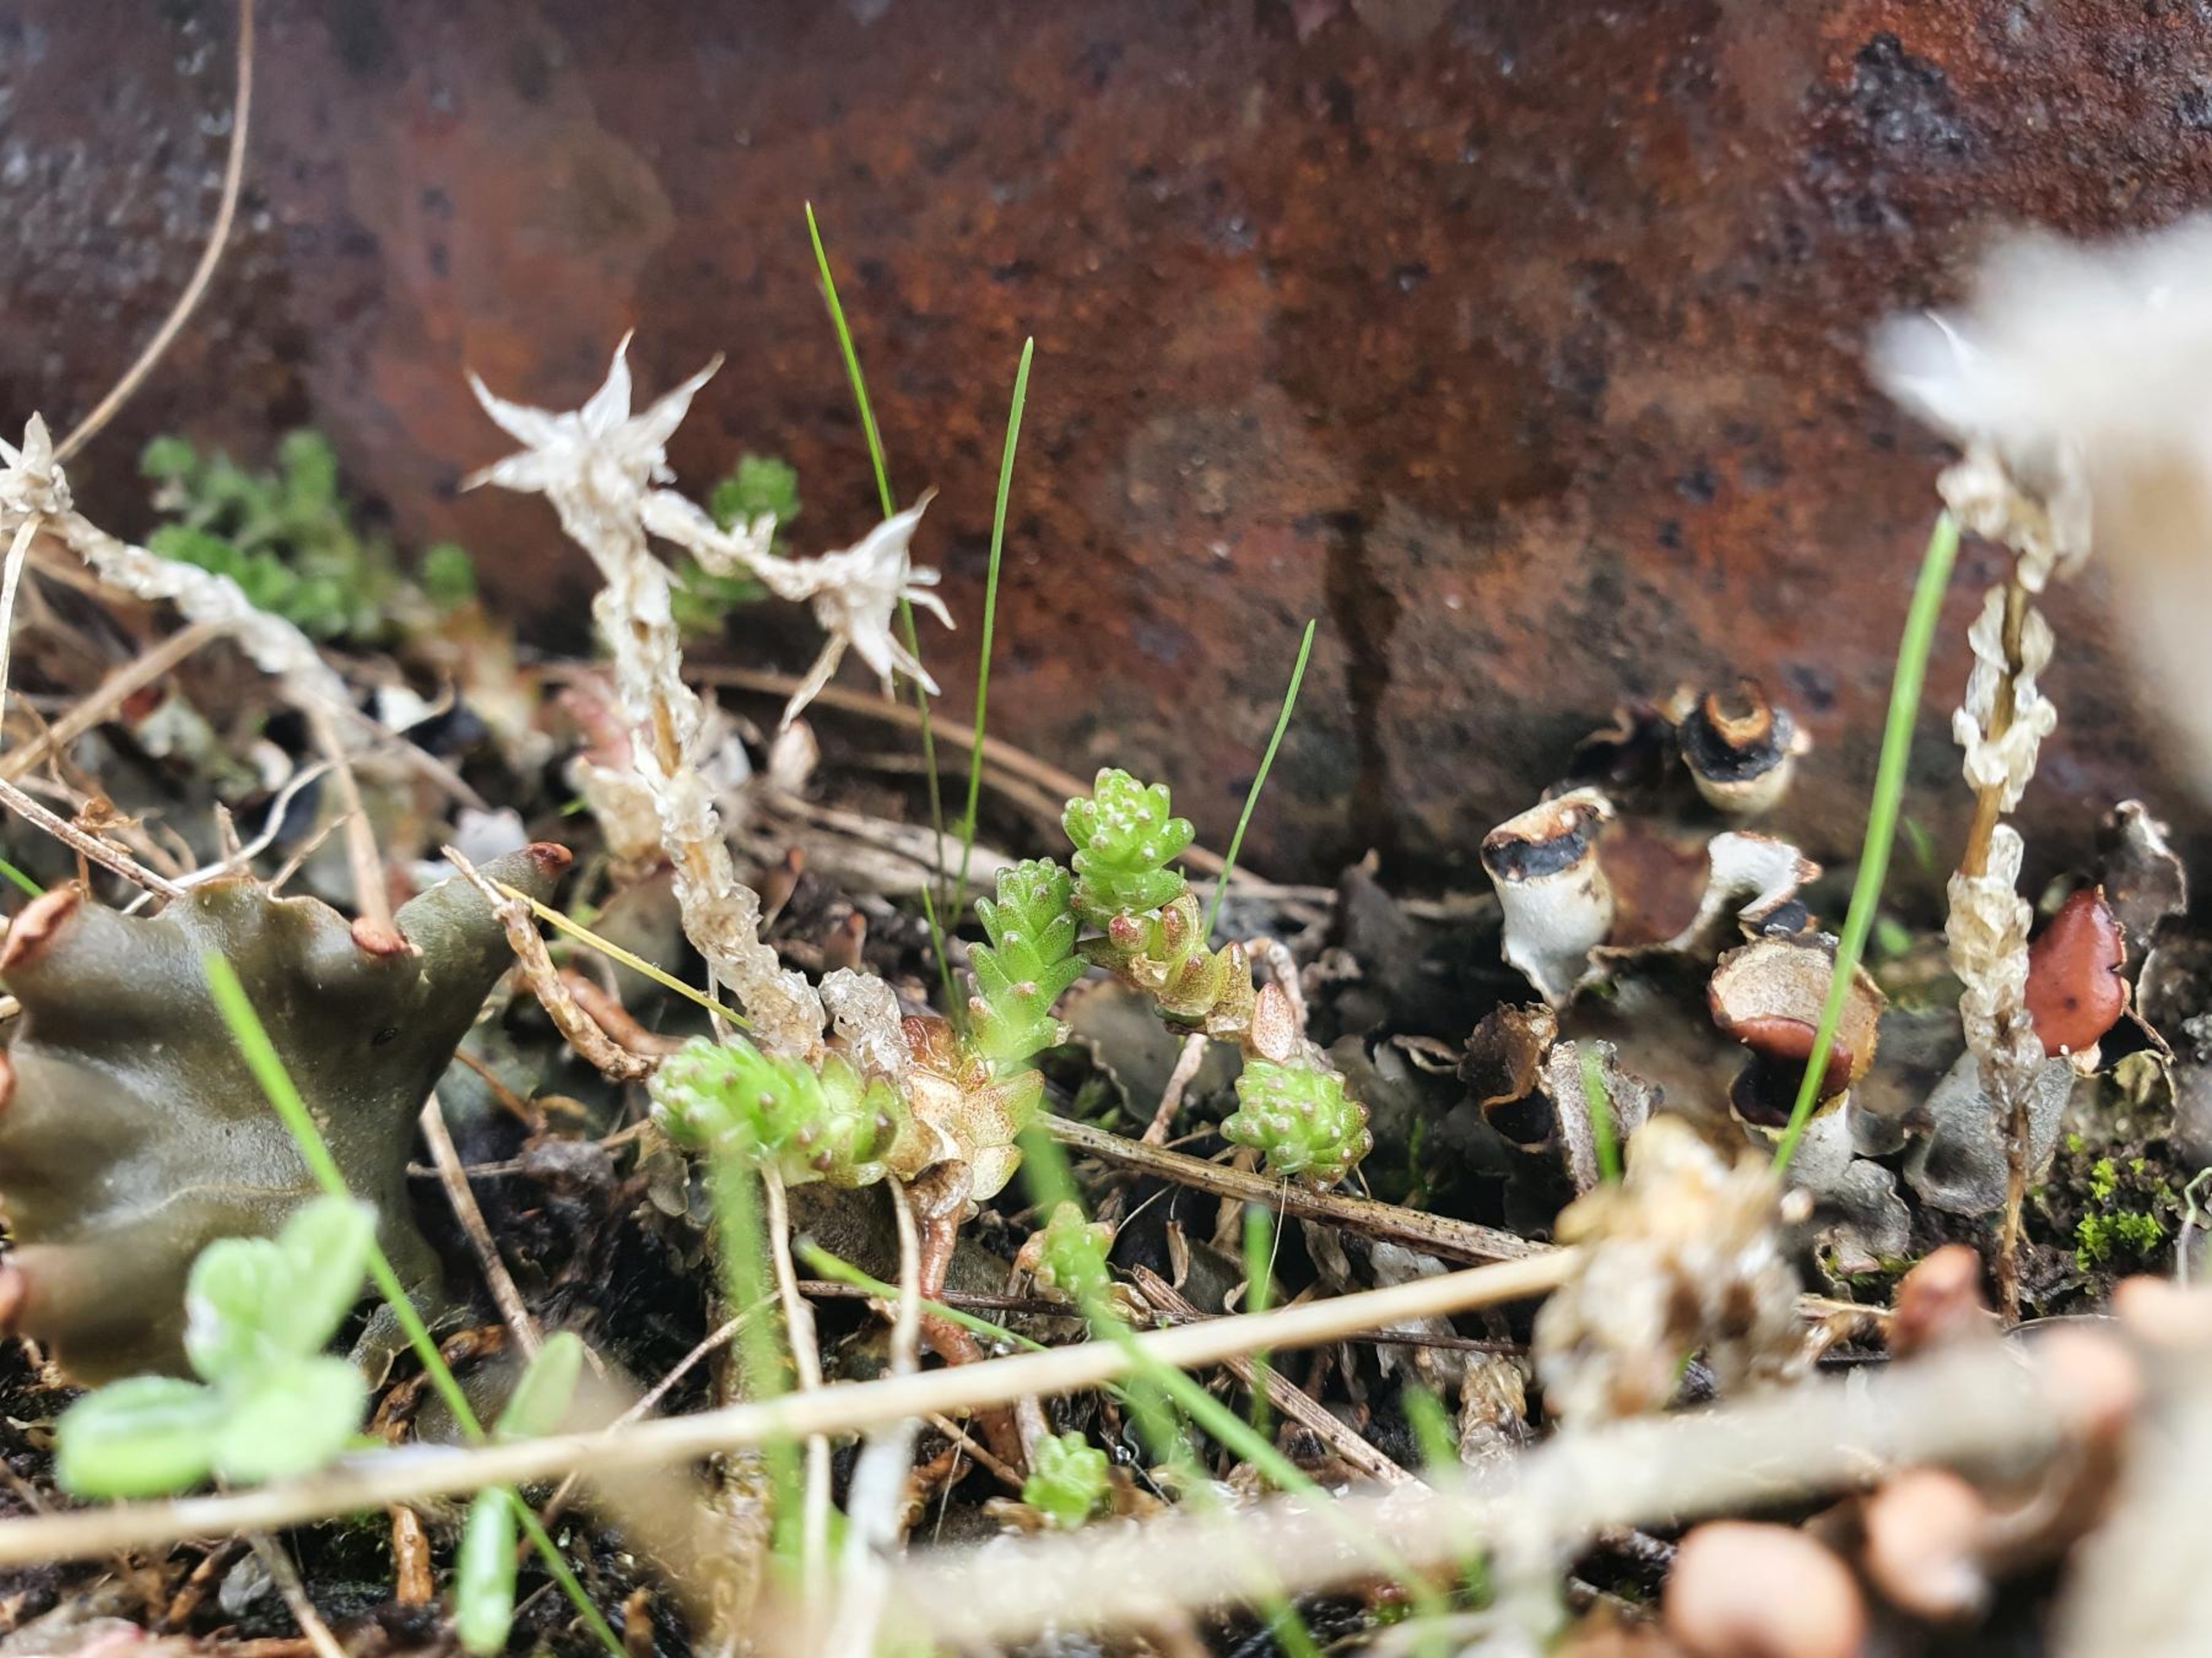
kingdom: Plantae
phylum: Tracheophyta
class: Magnoliopsida
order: Saxifragales
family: Crassulaceae
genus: Sedum
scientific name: Sedum acre
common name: Bidende stenurt
